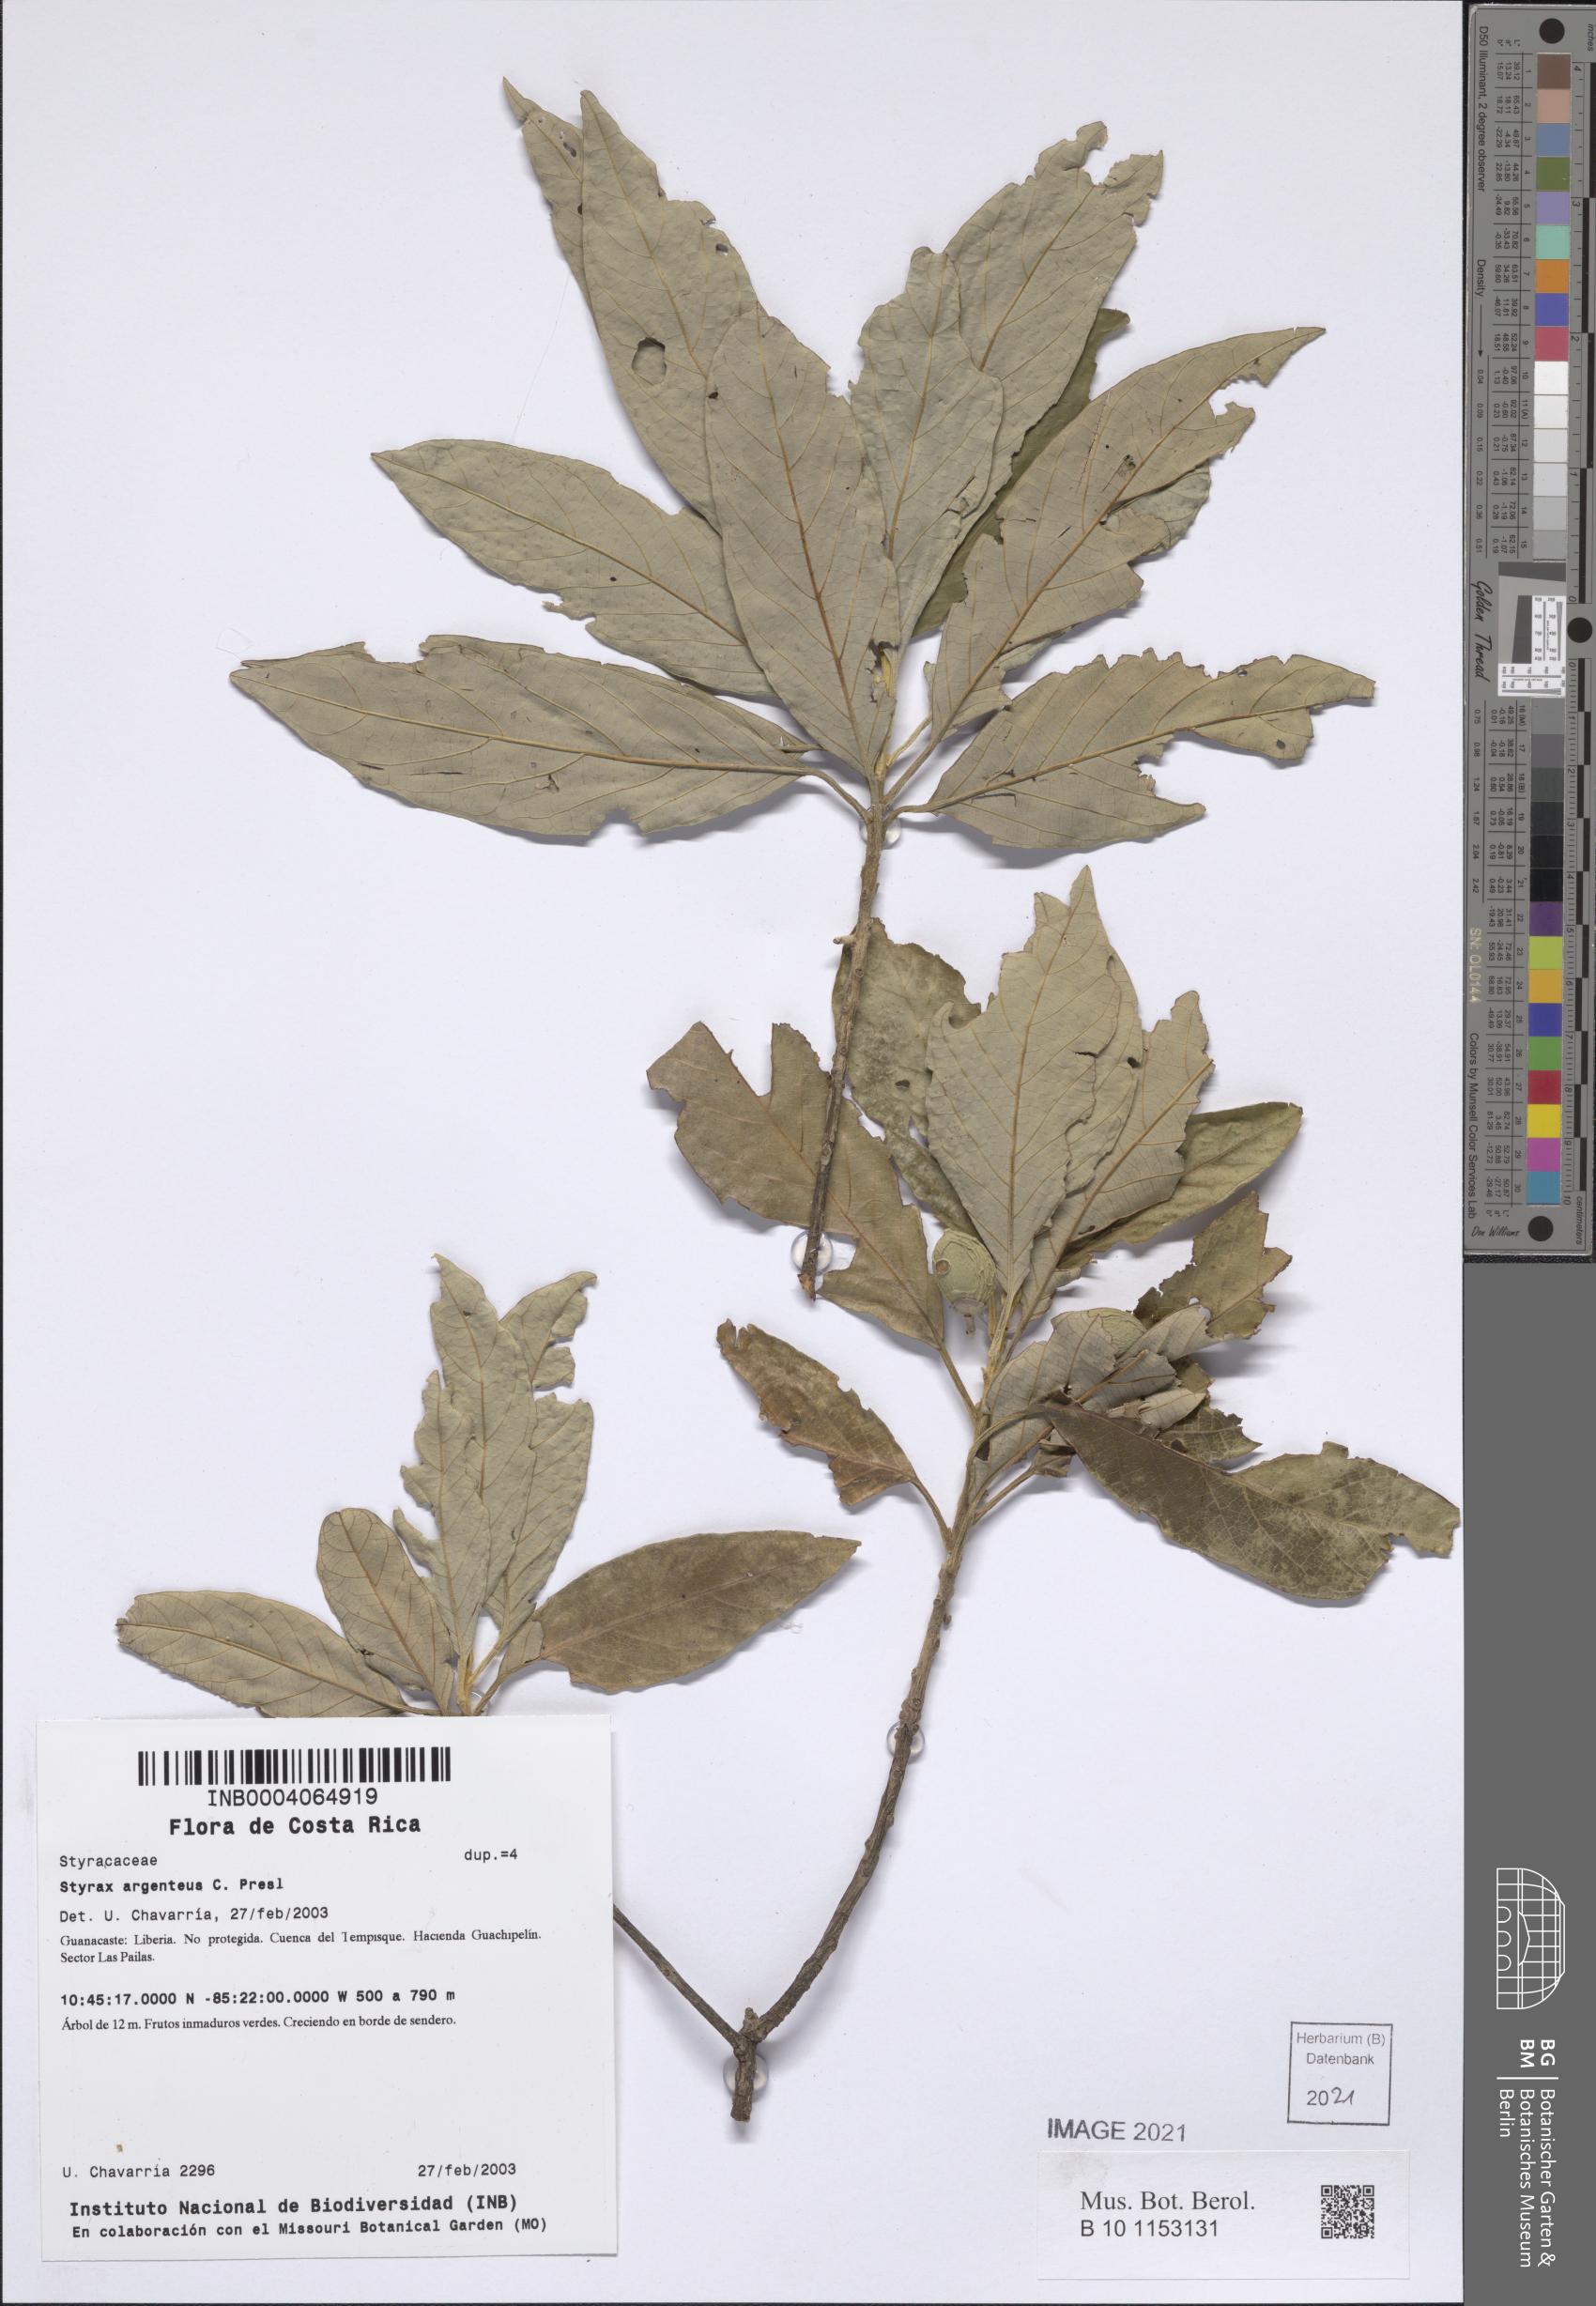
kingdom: Plantae
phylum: Tracheophyta
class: Magnoliopsida
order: Ericales
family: Styracaceae
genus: Styrax
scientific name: Styrax argenteus
